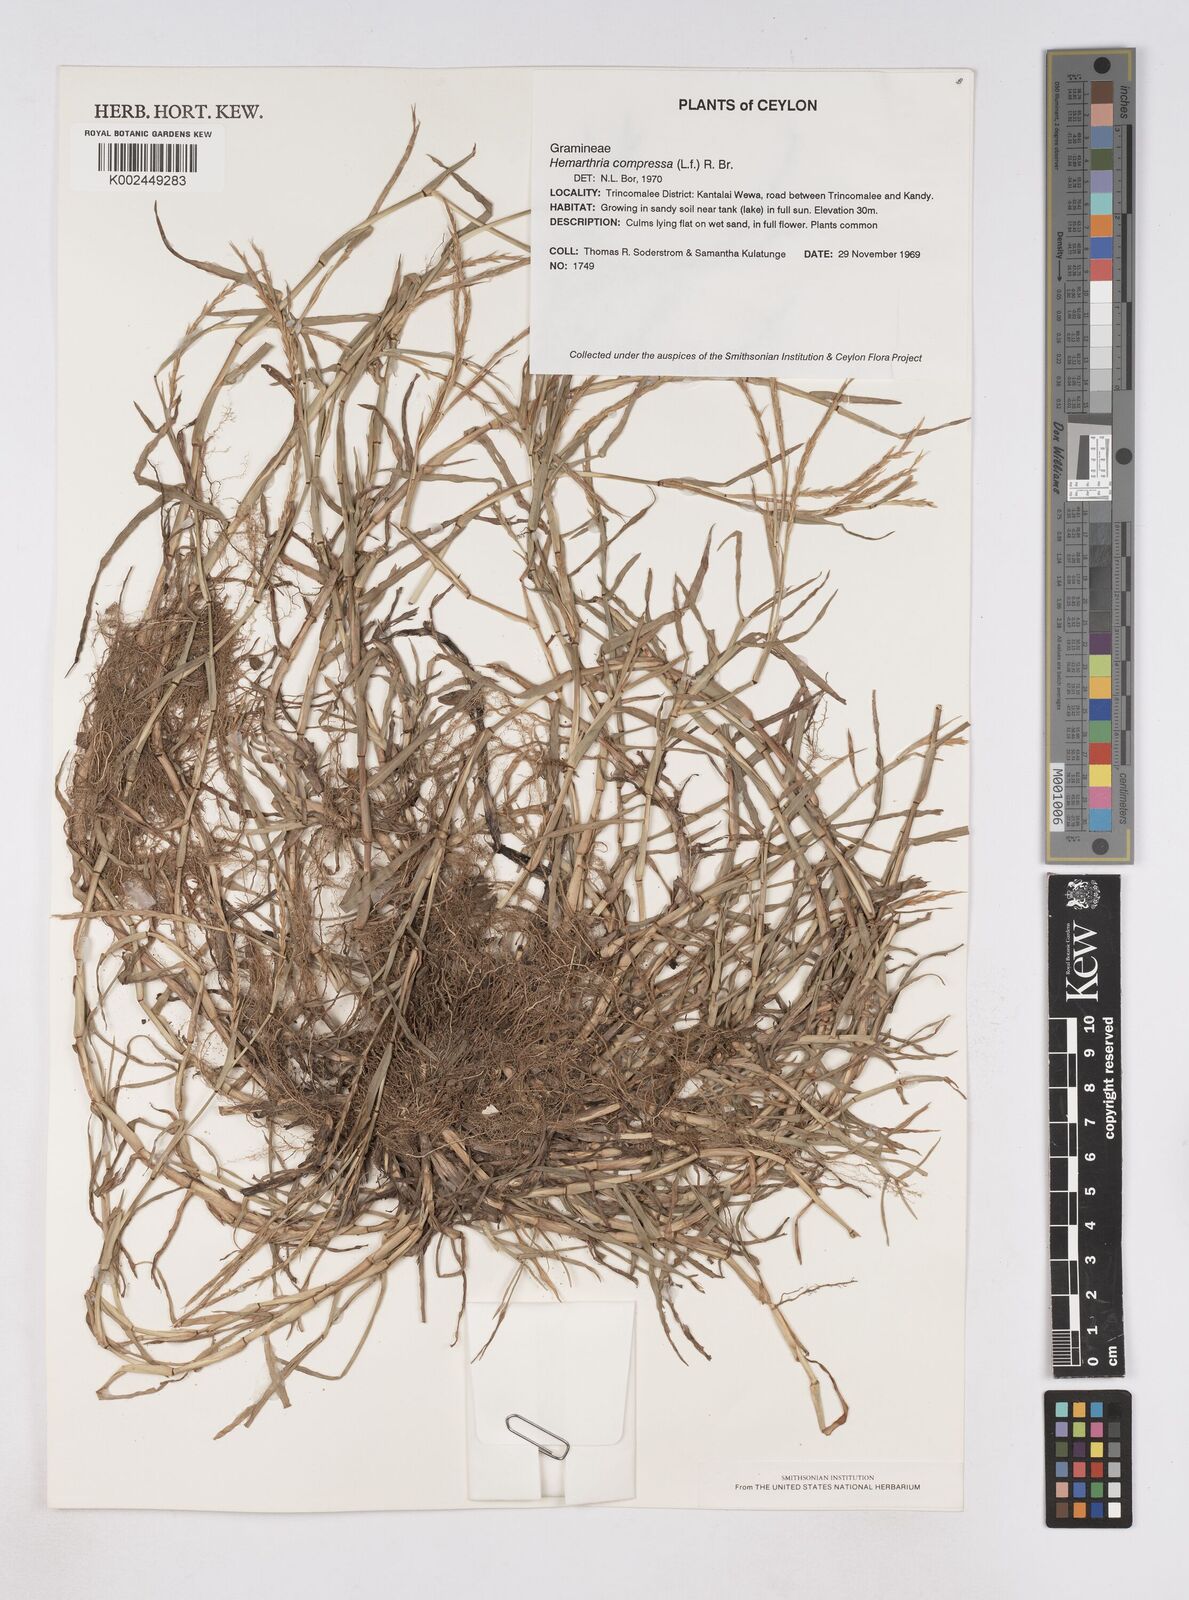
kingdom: Plantae
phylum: Tracheophyta
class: Liliopsida
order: Poales
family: Poaceae
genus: Hemarthria
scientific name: Hemarthria compressa
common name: Whip grass
